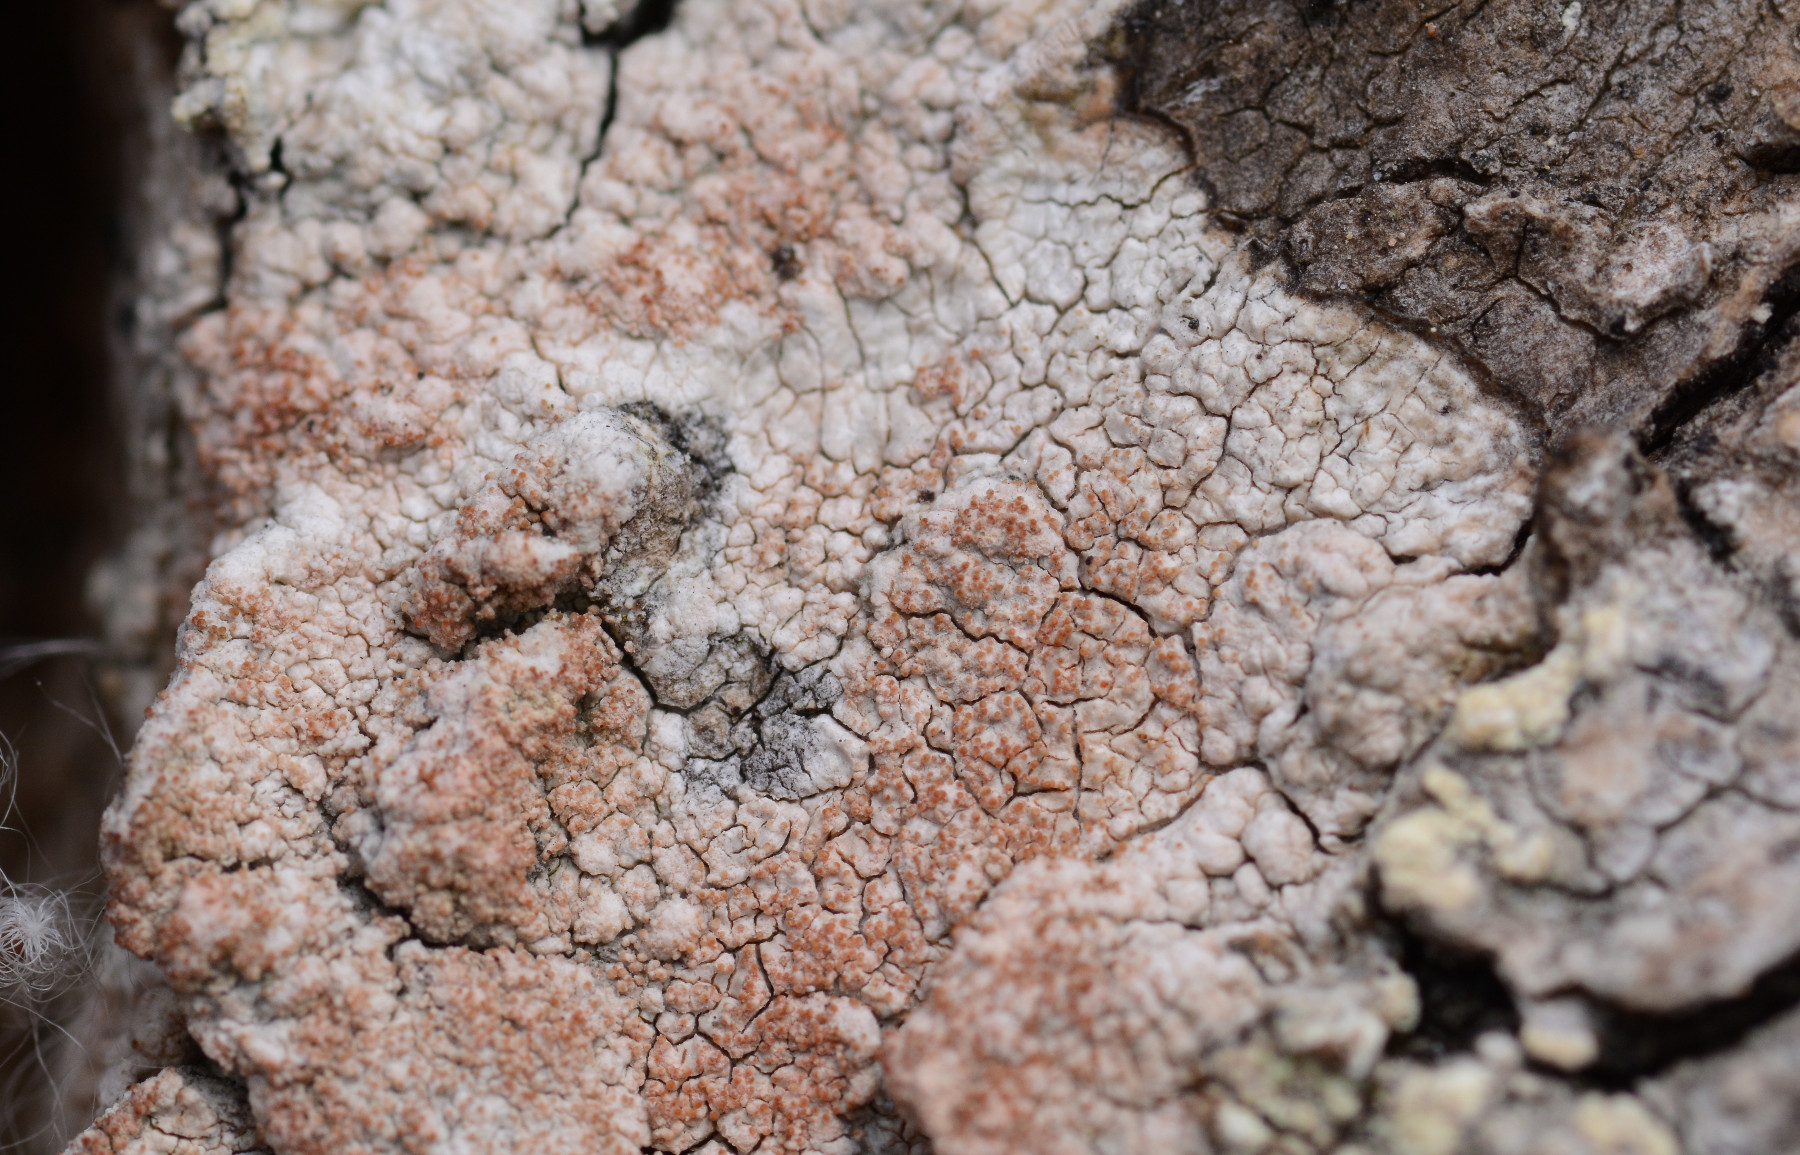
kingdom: Fungi
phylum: Ascomycota
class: Lecanoromycetes
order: Pertusariales
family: Pertusariaceae
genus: Pertusaria
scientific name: Pertusaria coccodes
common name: skurvet prikvortelav
